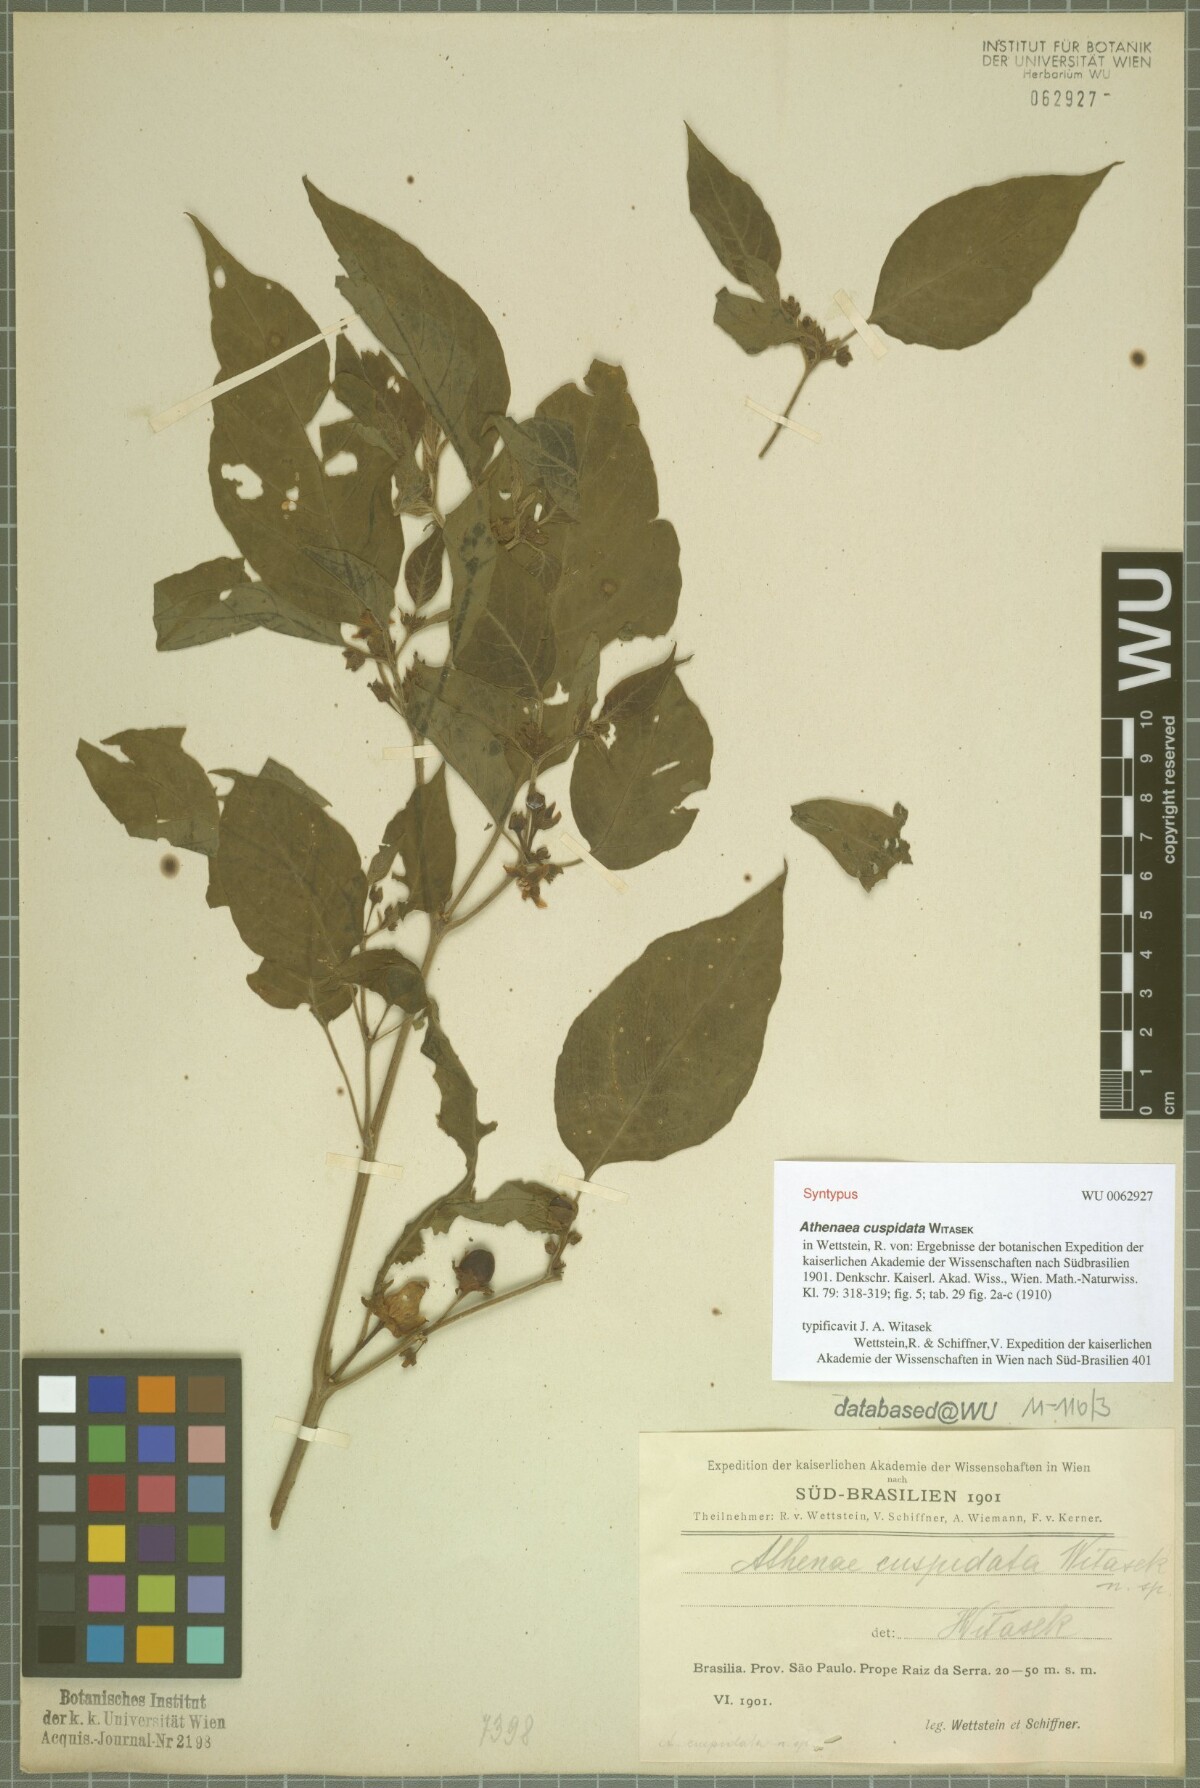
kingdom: Plantae
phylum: Tracheophyta
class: Magnoliopsida
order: Solanales
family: Solanaceae
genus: Athenaea
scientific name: Athenaea cuspidata
